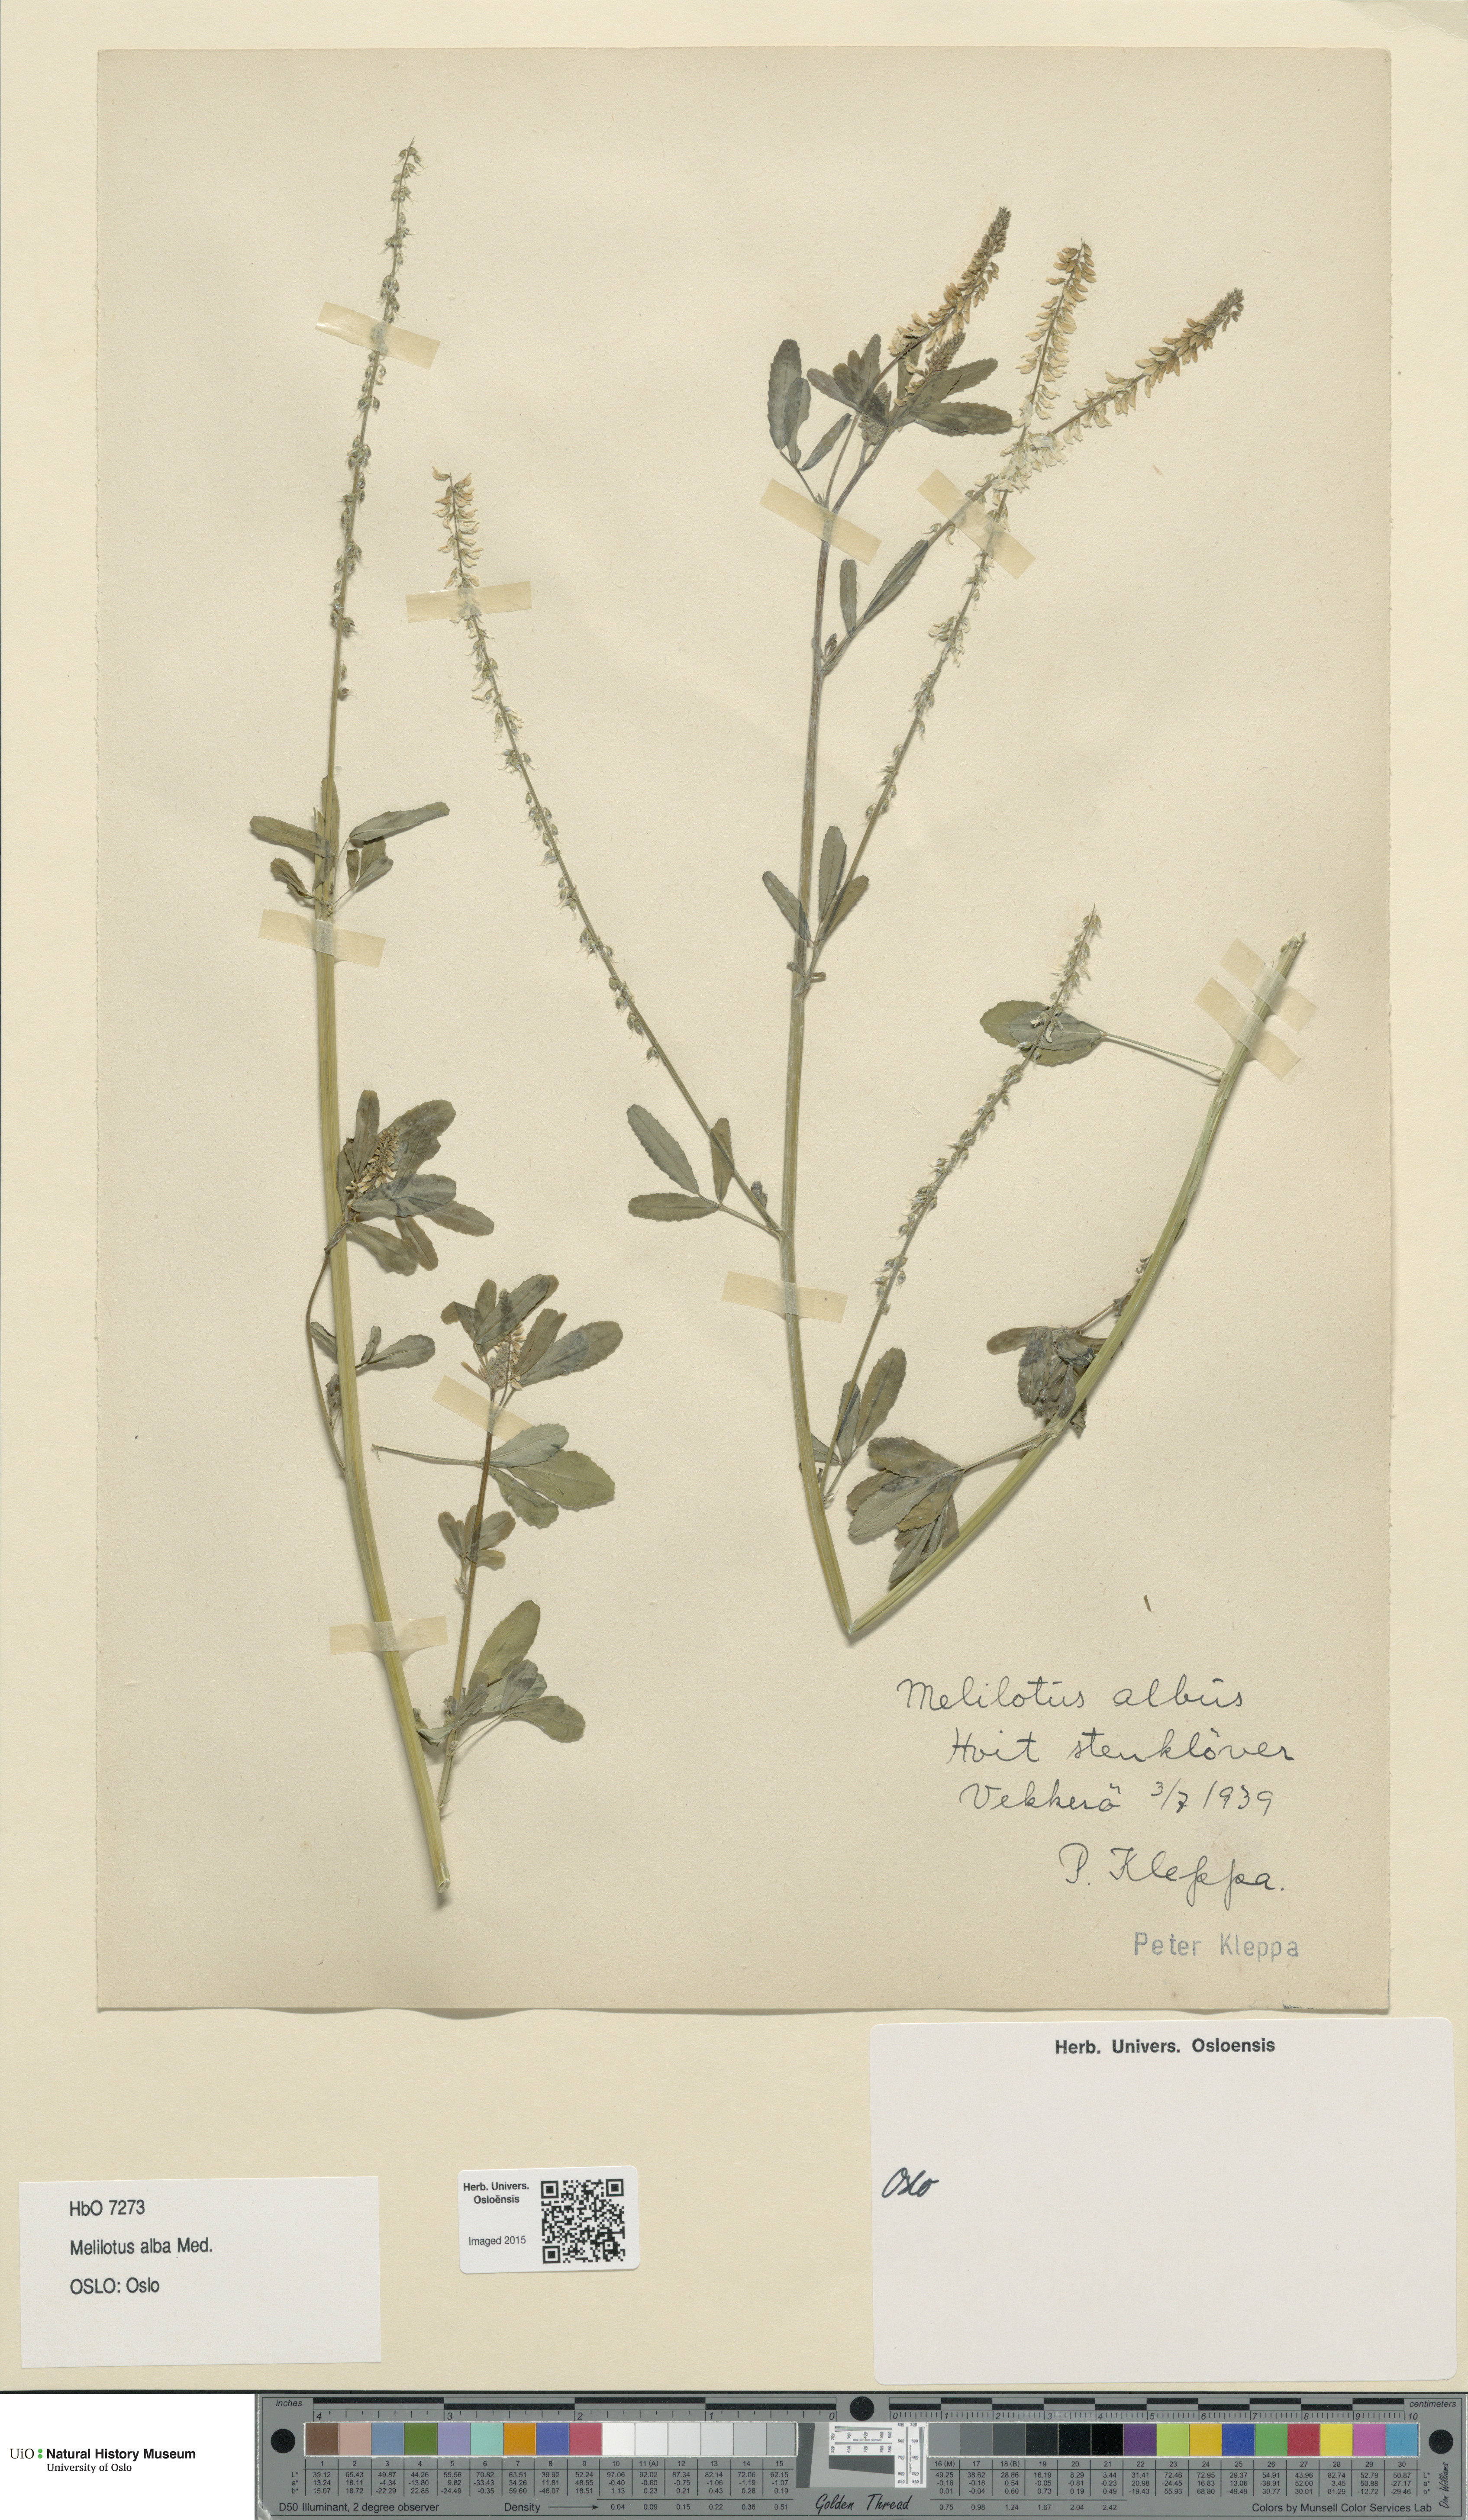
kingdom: Plantae
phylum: Tracheophyta
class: Magnoliopsida
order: Fabales
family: Fabaceae
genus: Melilotus
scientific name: Melilotus albus
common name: White melilot
